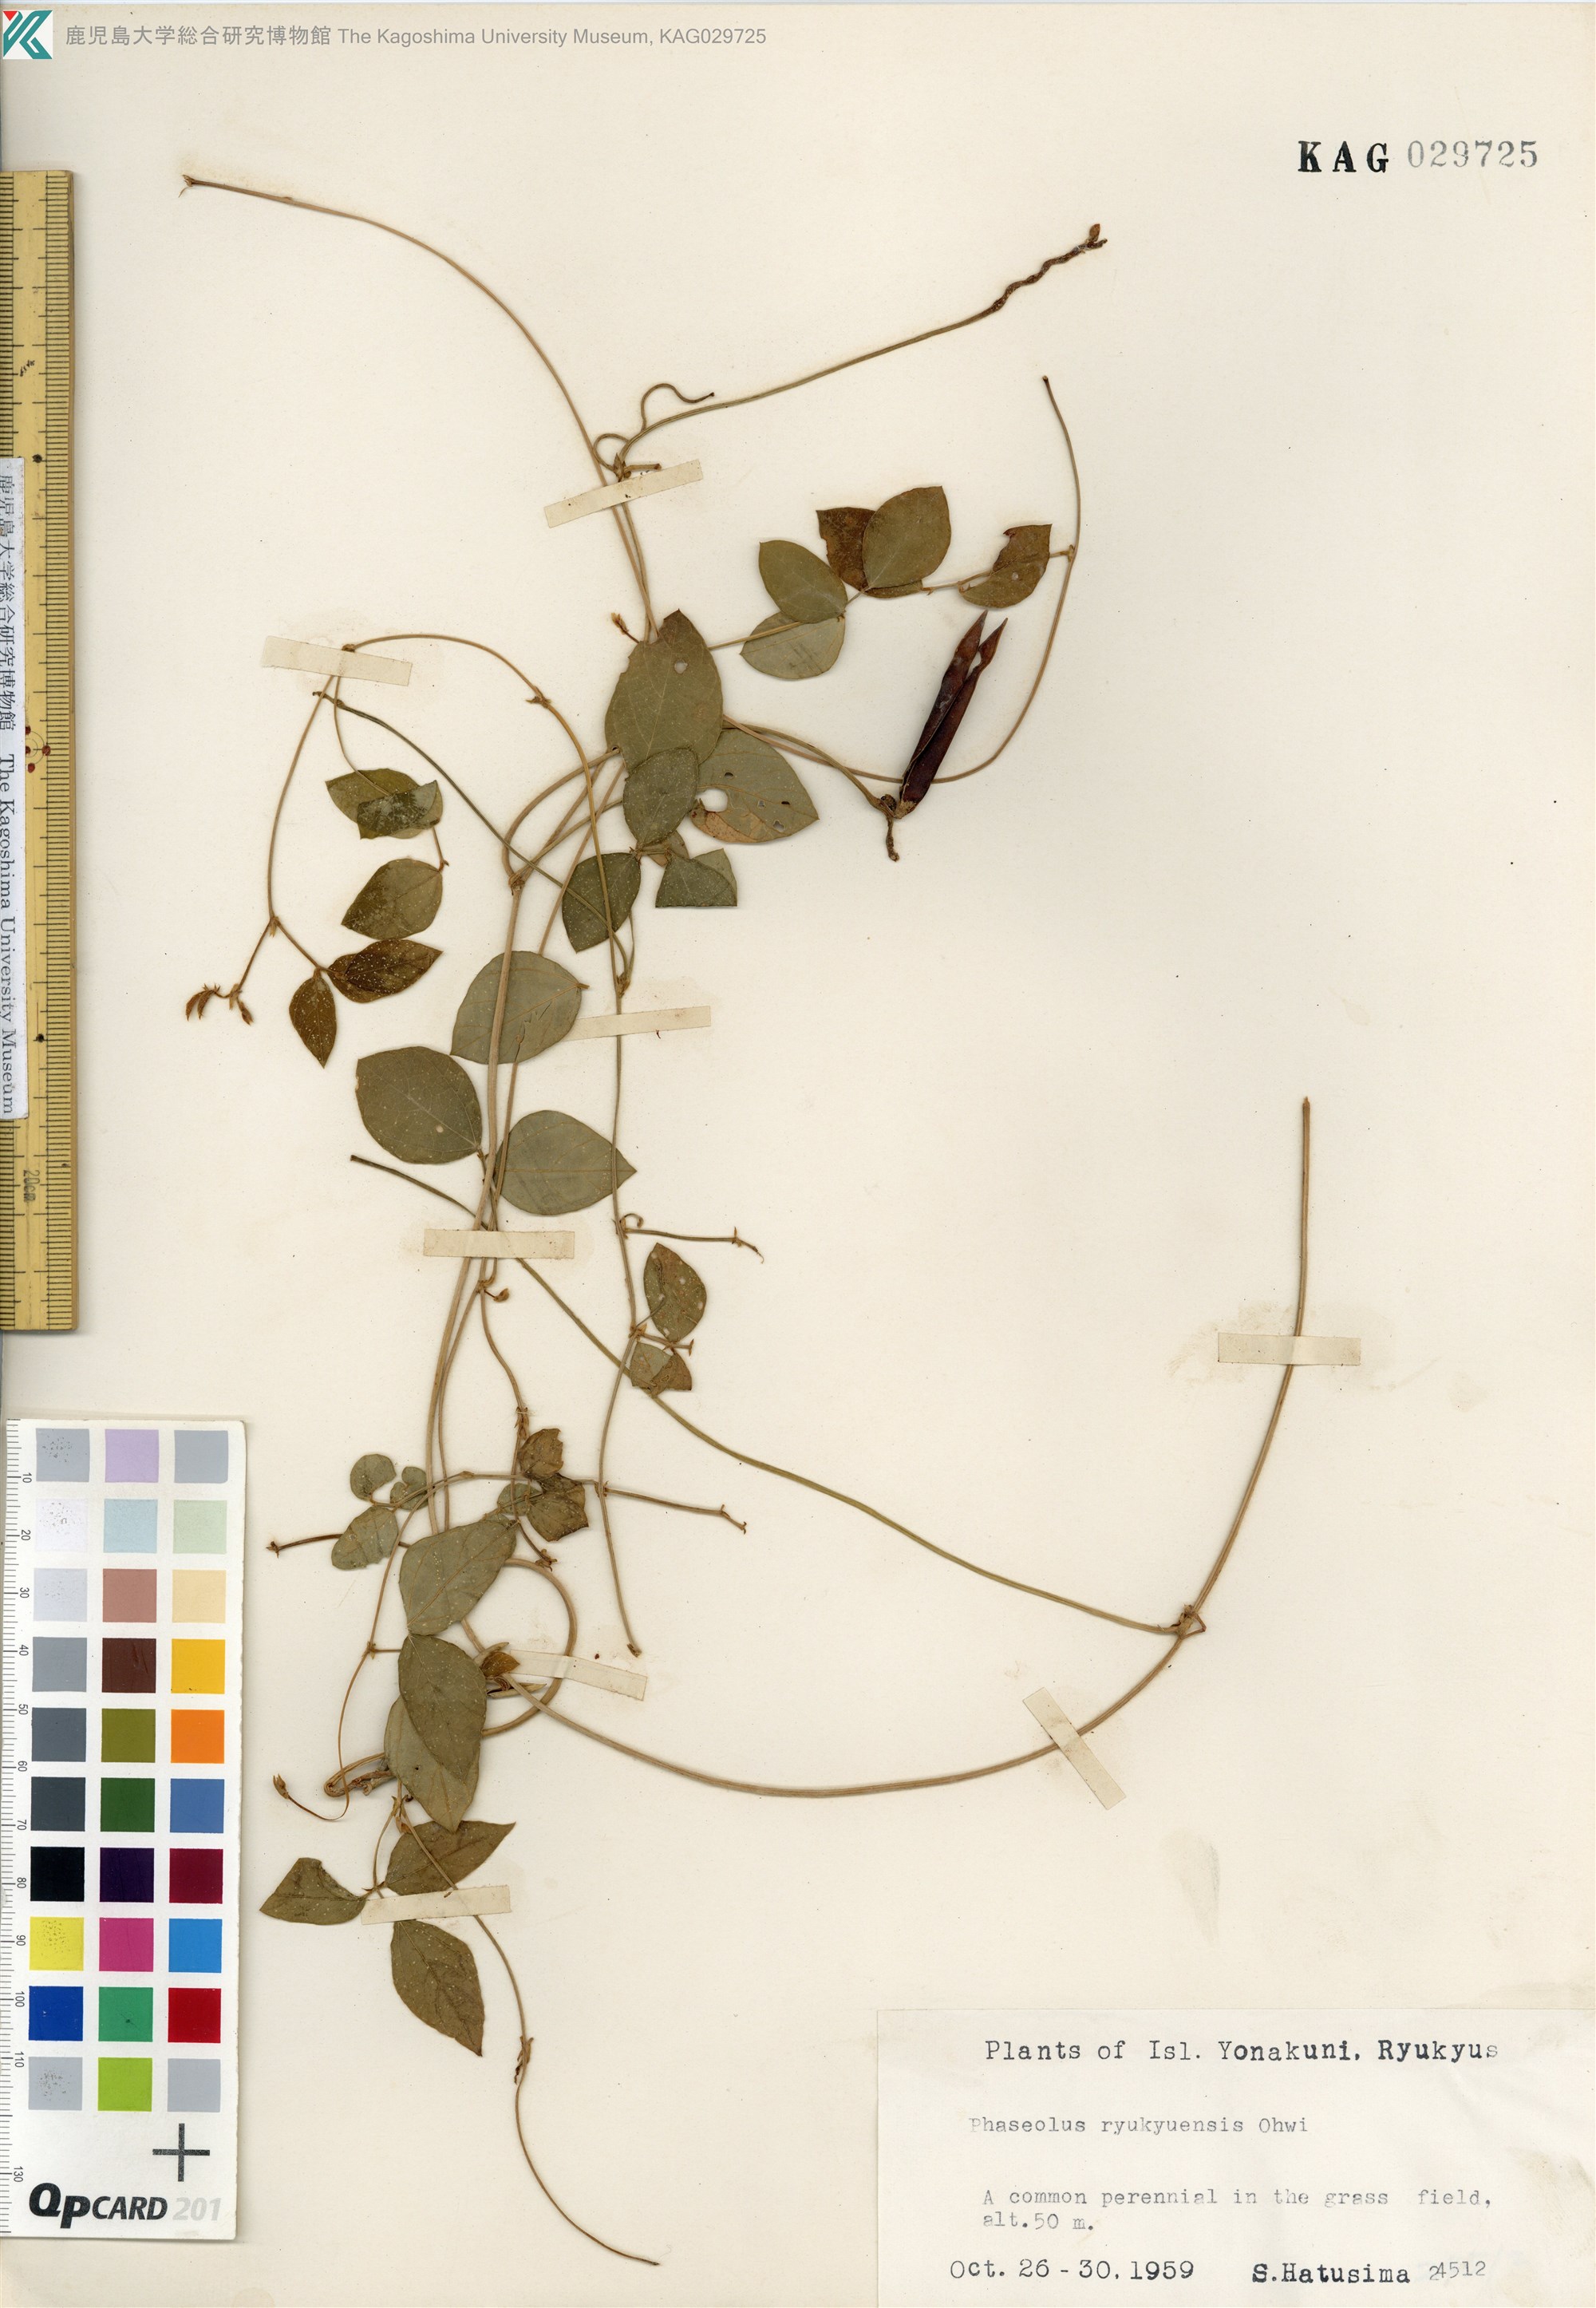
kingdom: Plantae
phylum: Tracheophyta
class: Magnoliopsida
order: Fabales
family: Fabaceae
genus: Vigna
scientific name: Vigna minima
